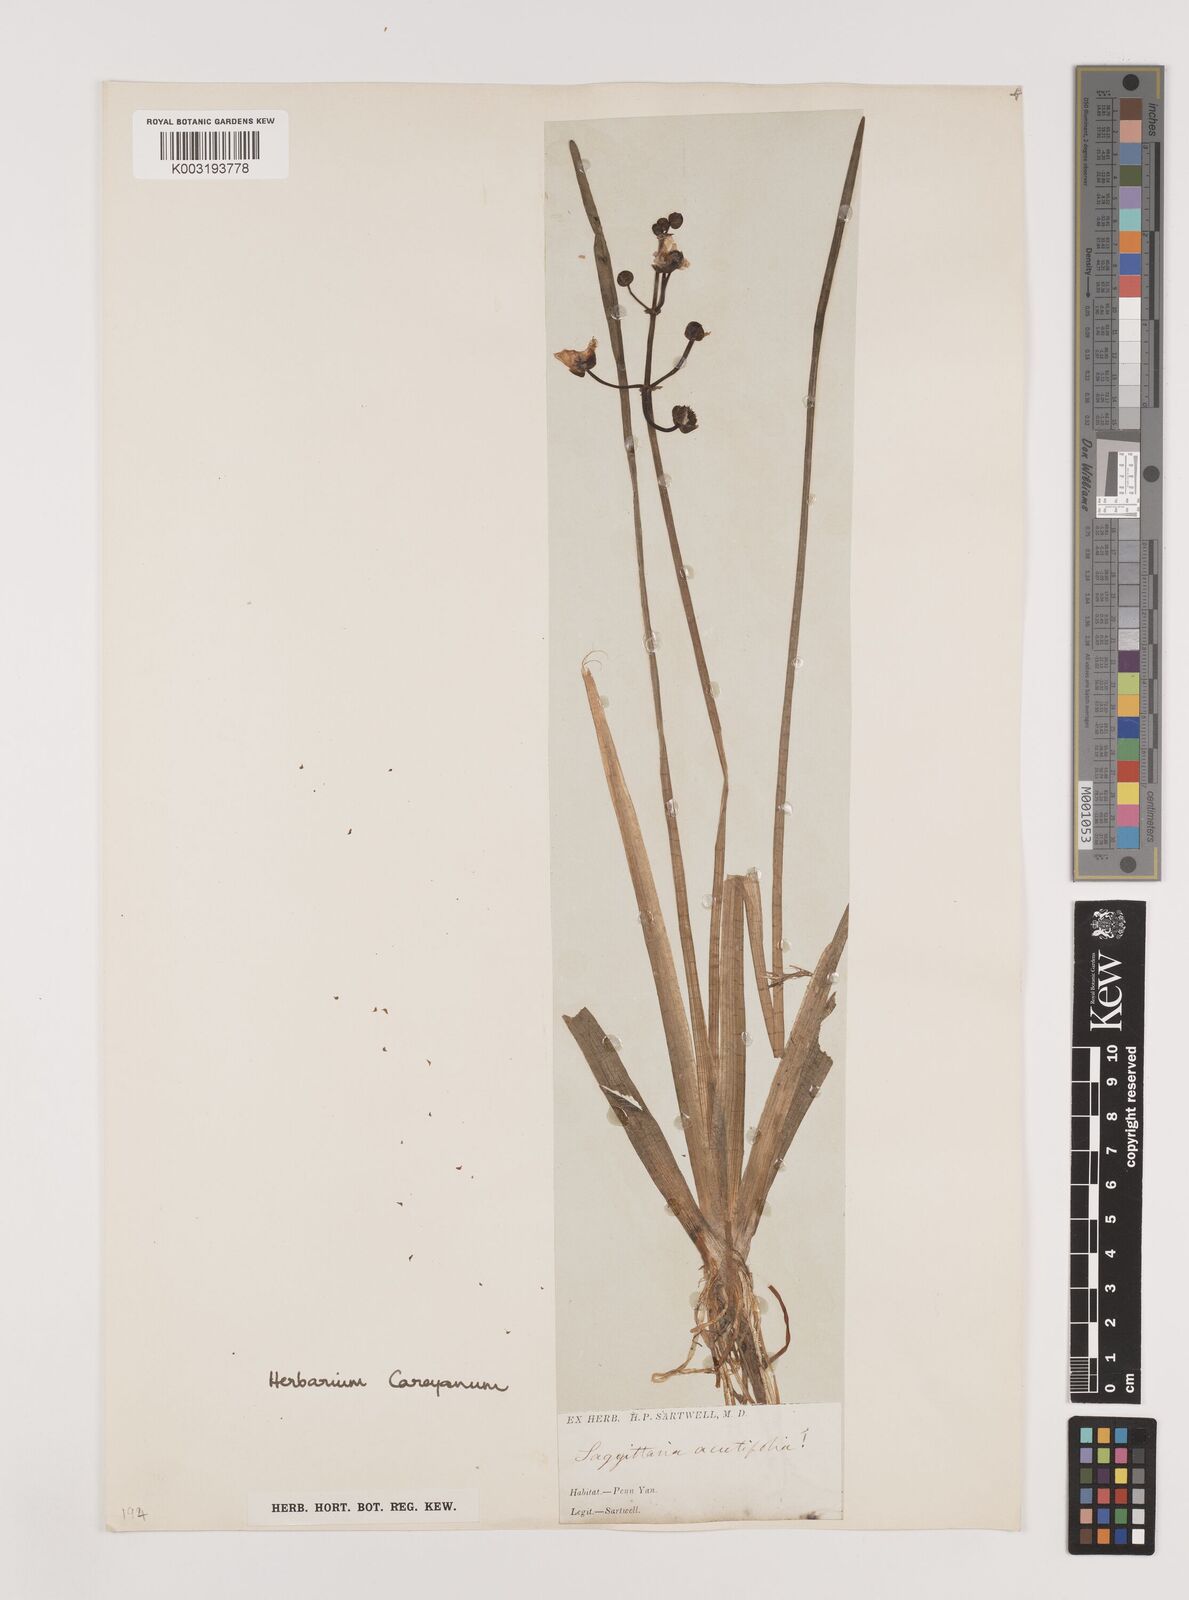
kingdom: Plantae
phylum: Tracheophyta
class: Liliopsida
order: Alismatales
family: Alismataceae
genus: Sagittaria
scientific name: Sagittaria lancifolia
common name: Lance-leaf arrowhead
